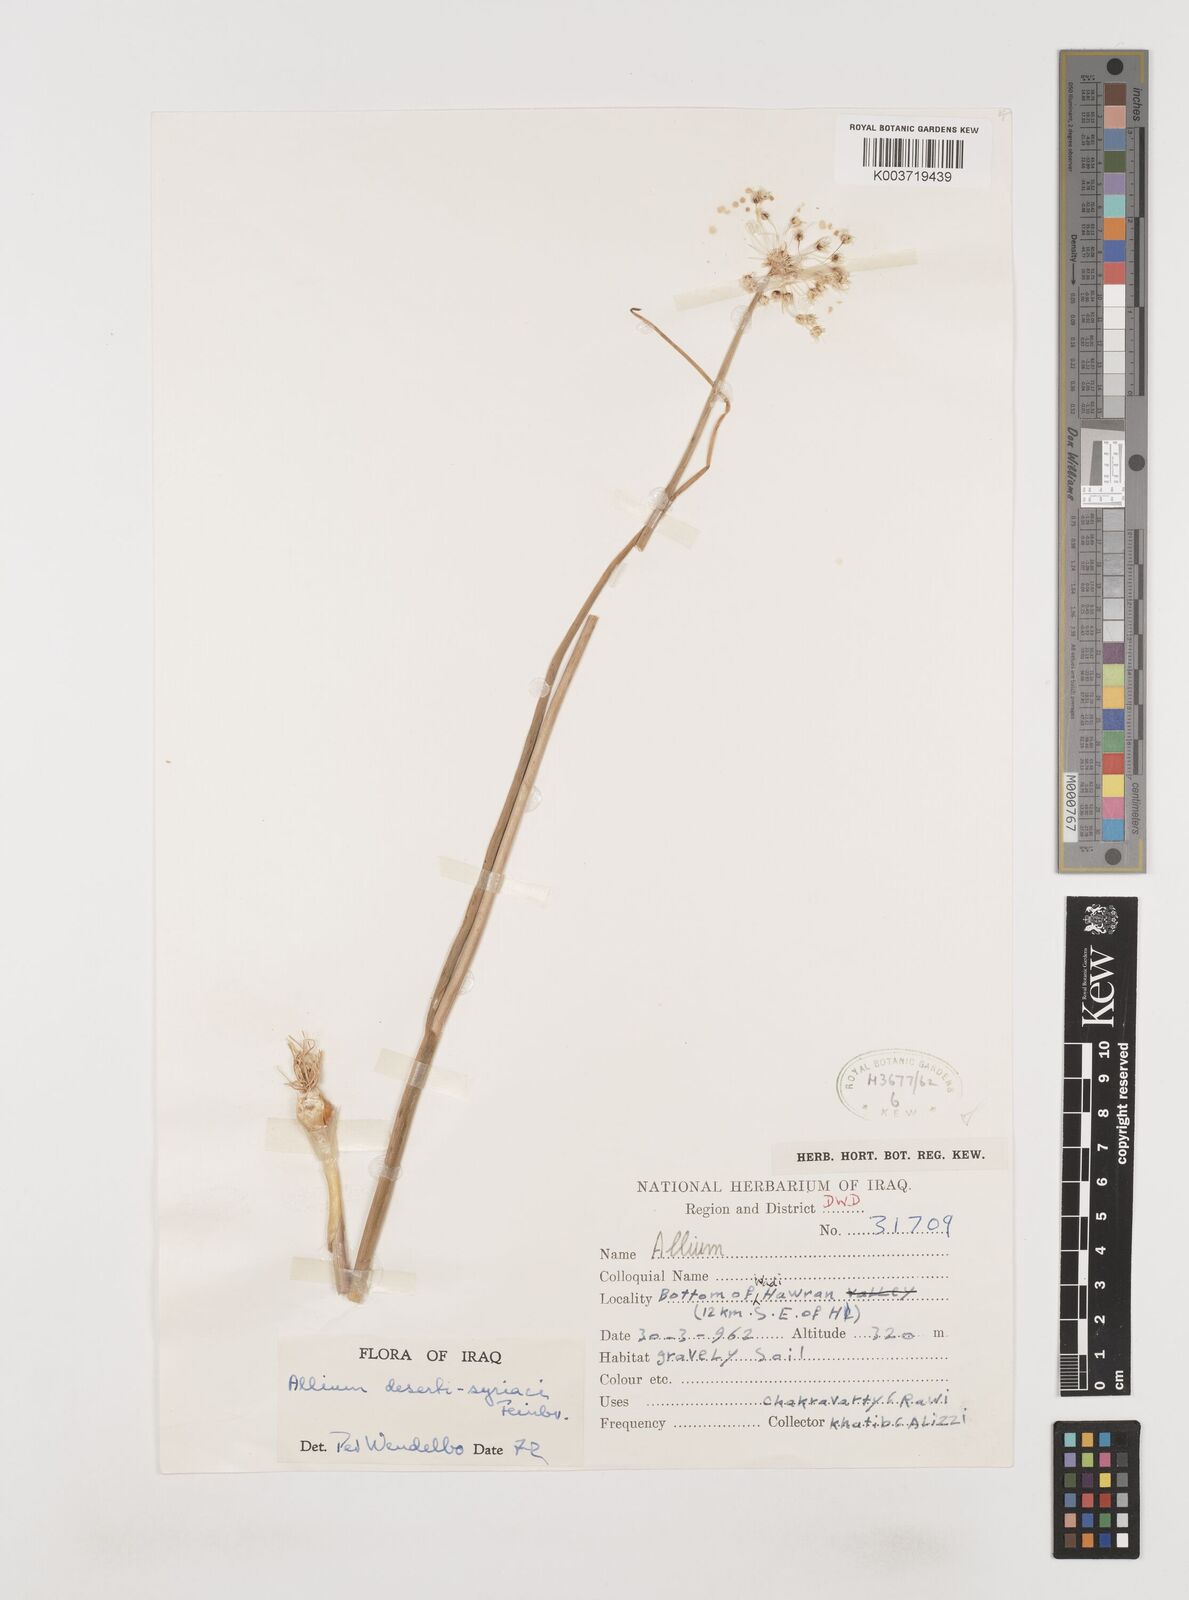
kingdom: Plantae
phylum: Tracheophyta
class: Liliopsida
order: Asparagales
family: Amaryllidaceae
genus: Allium
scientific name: Allium deserti-syriaci
